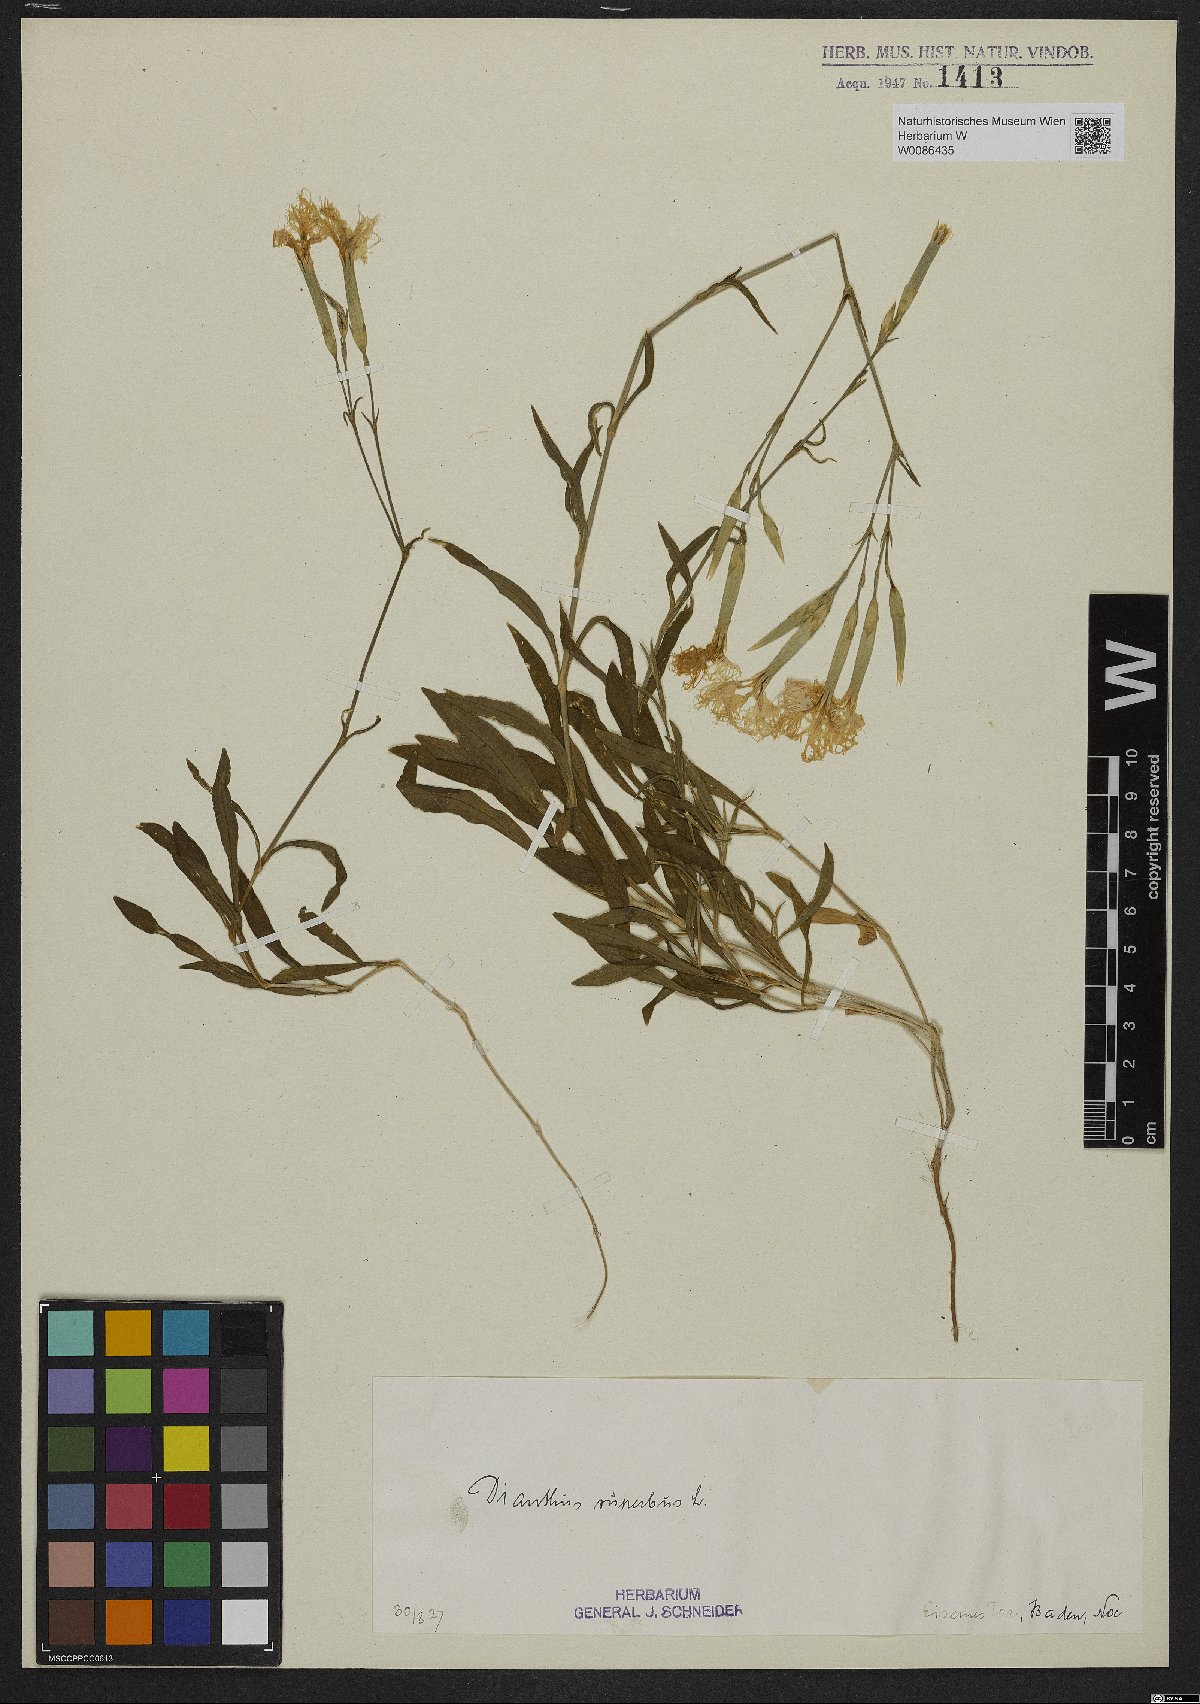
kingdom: Plantae
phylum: Tracheophyta
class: Magnoliopsida
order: Caryophyllales
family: Caryophyllaceae
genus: Dianthus
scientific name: Dianthus superbus
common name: Fringed pink
